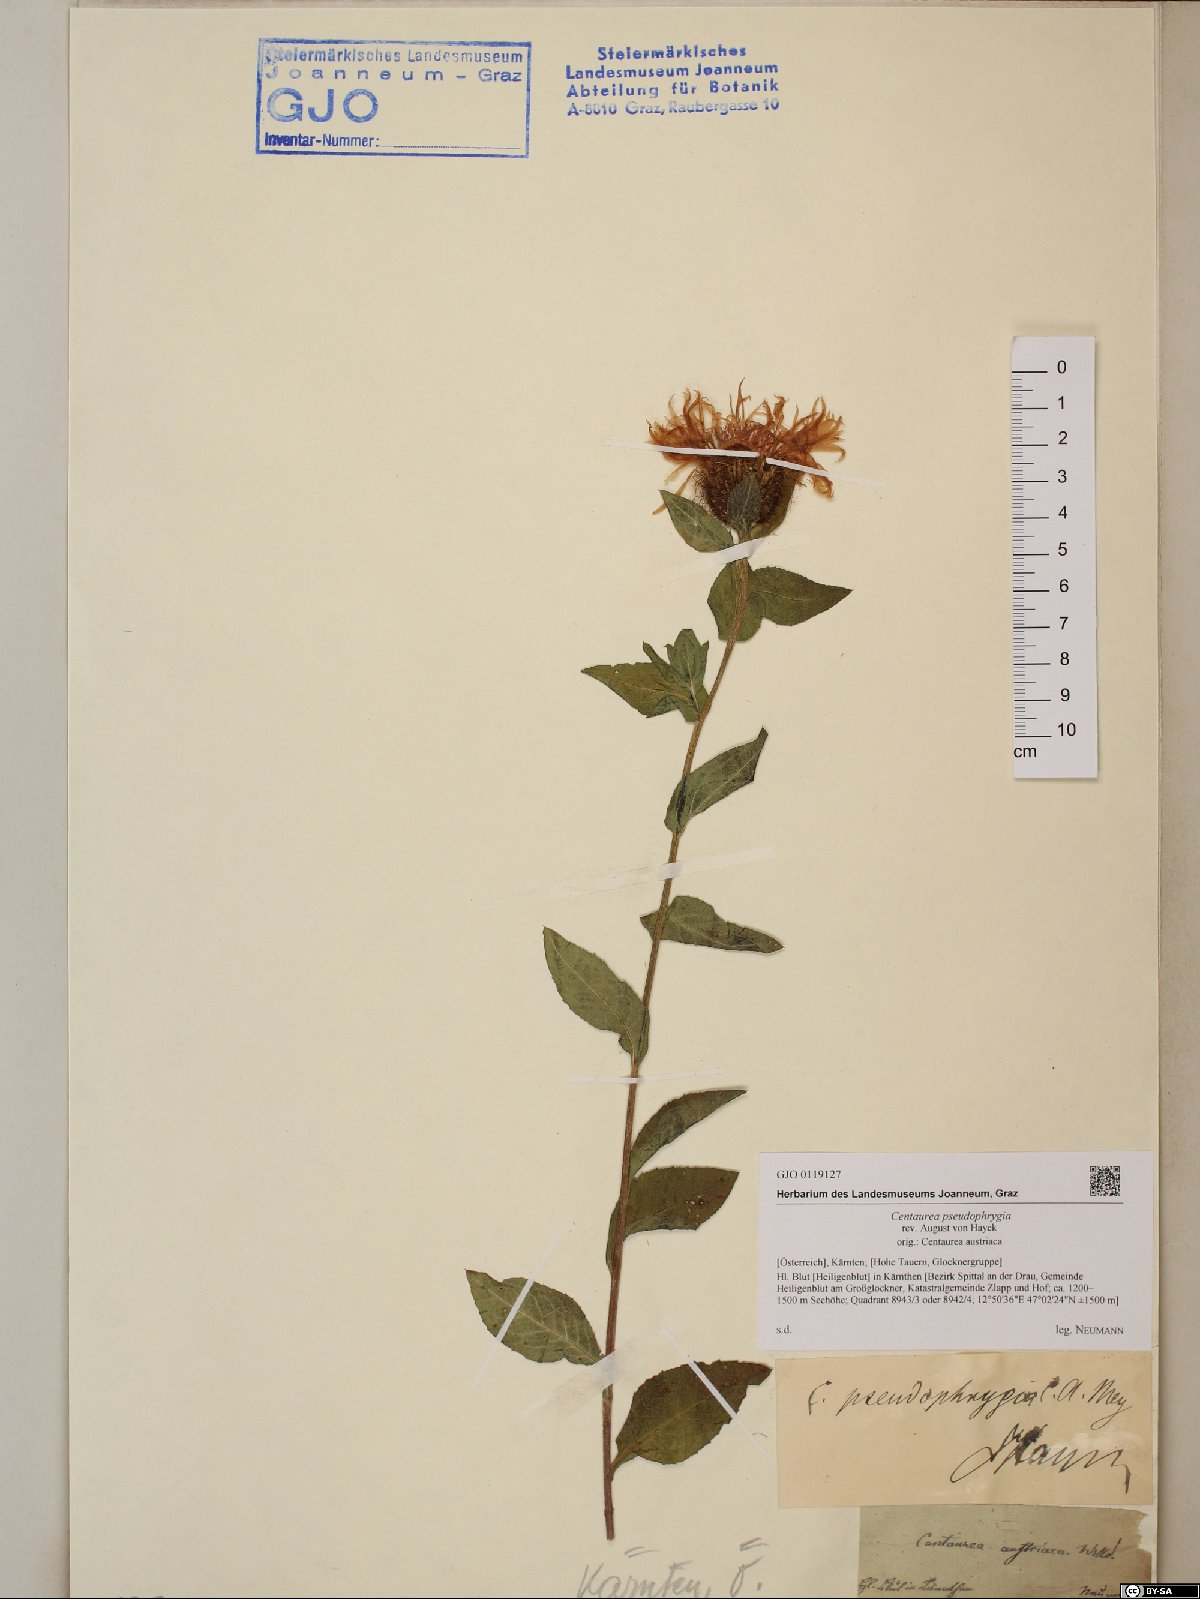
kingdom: Plantae
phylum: Tracheophyta
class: Magnoliopsida
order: Asterales
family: Asteraceae
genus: Centaurea
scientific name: Centaurea pseudophrygia
